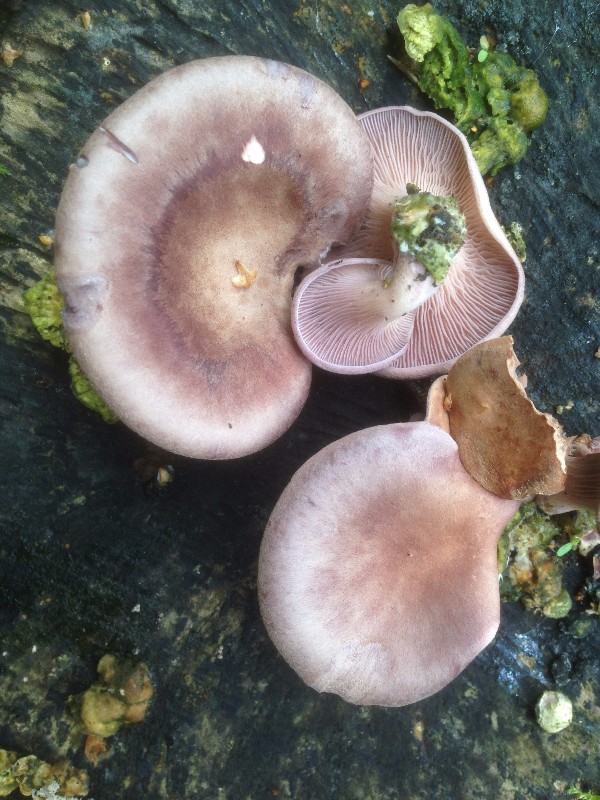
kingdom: Fungi
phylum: Basidiomycota
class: Agaricomycetes
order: Polyporales
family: Panaceae
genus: Panus
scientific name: Panus conchatus
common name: filtstokket læderhat
